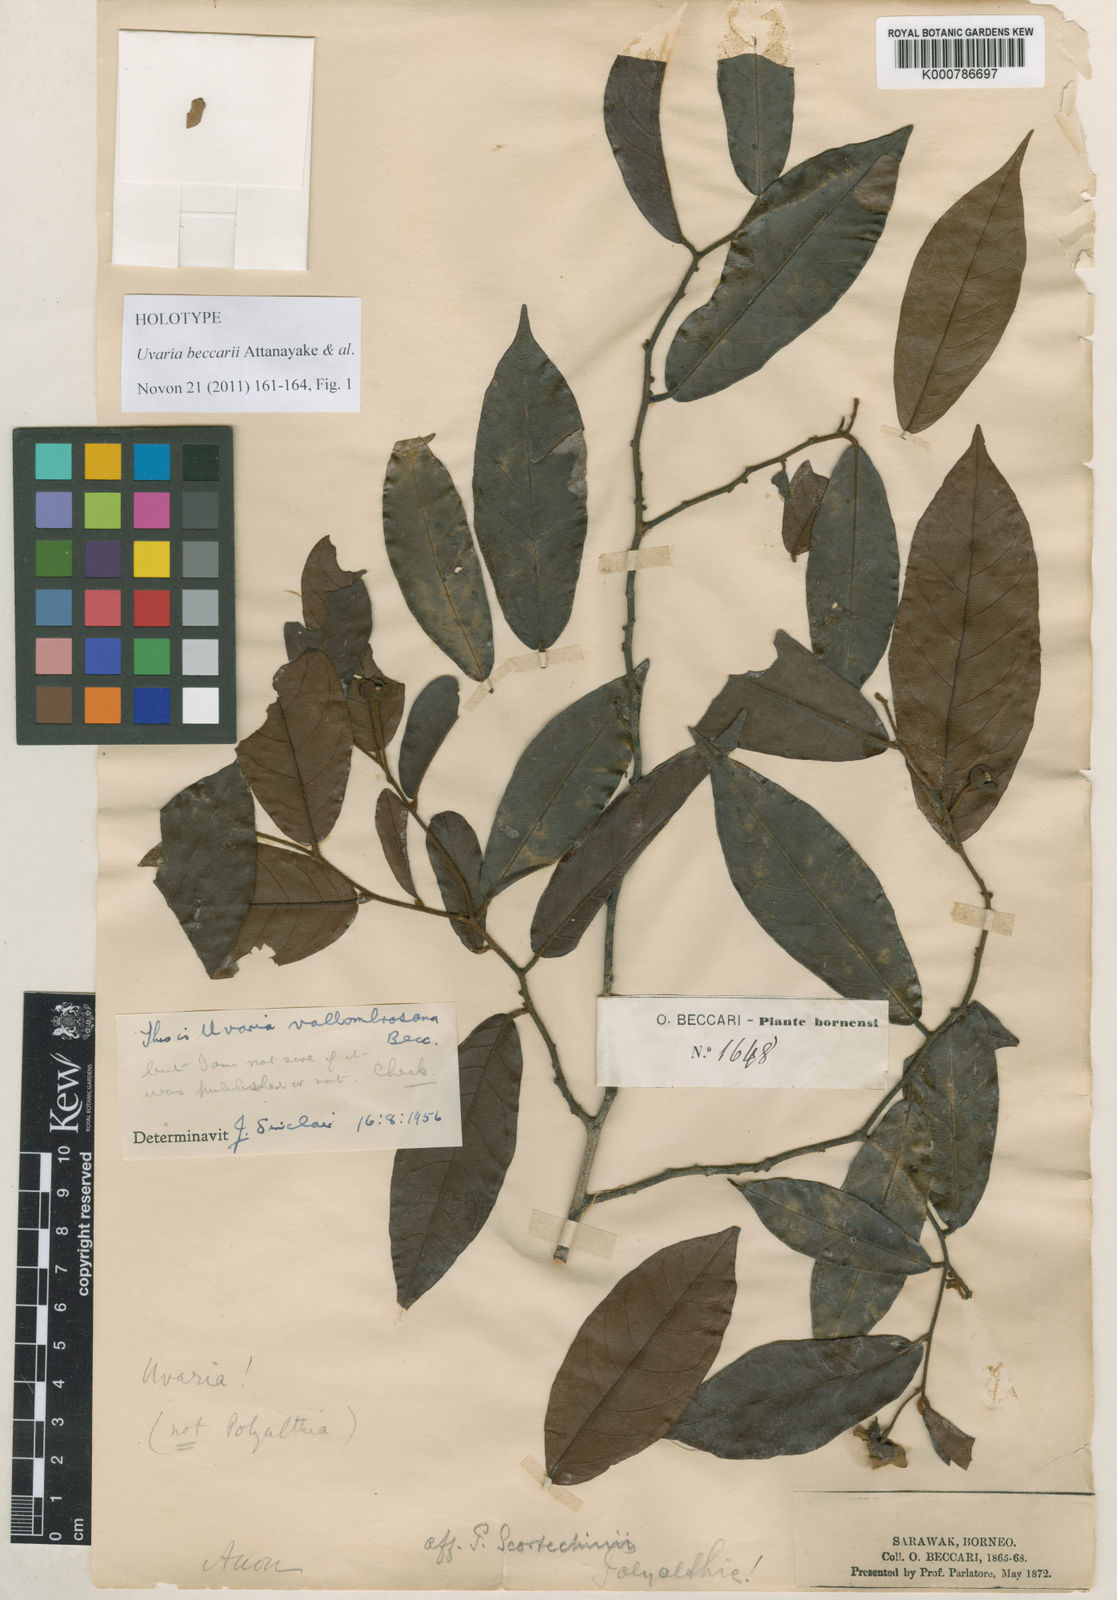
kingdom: Plantae
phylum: Tracheophyta
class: Magnoliopsida
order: Magnoliales
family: Annonaceae
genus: Uvaria
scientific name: Uvaria beccarii
